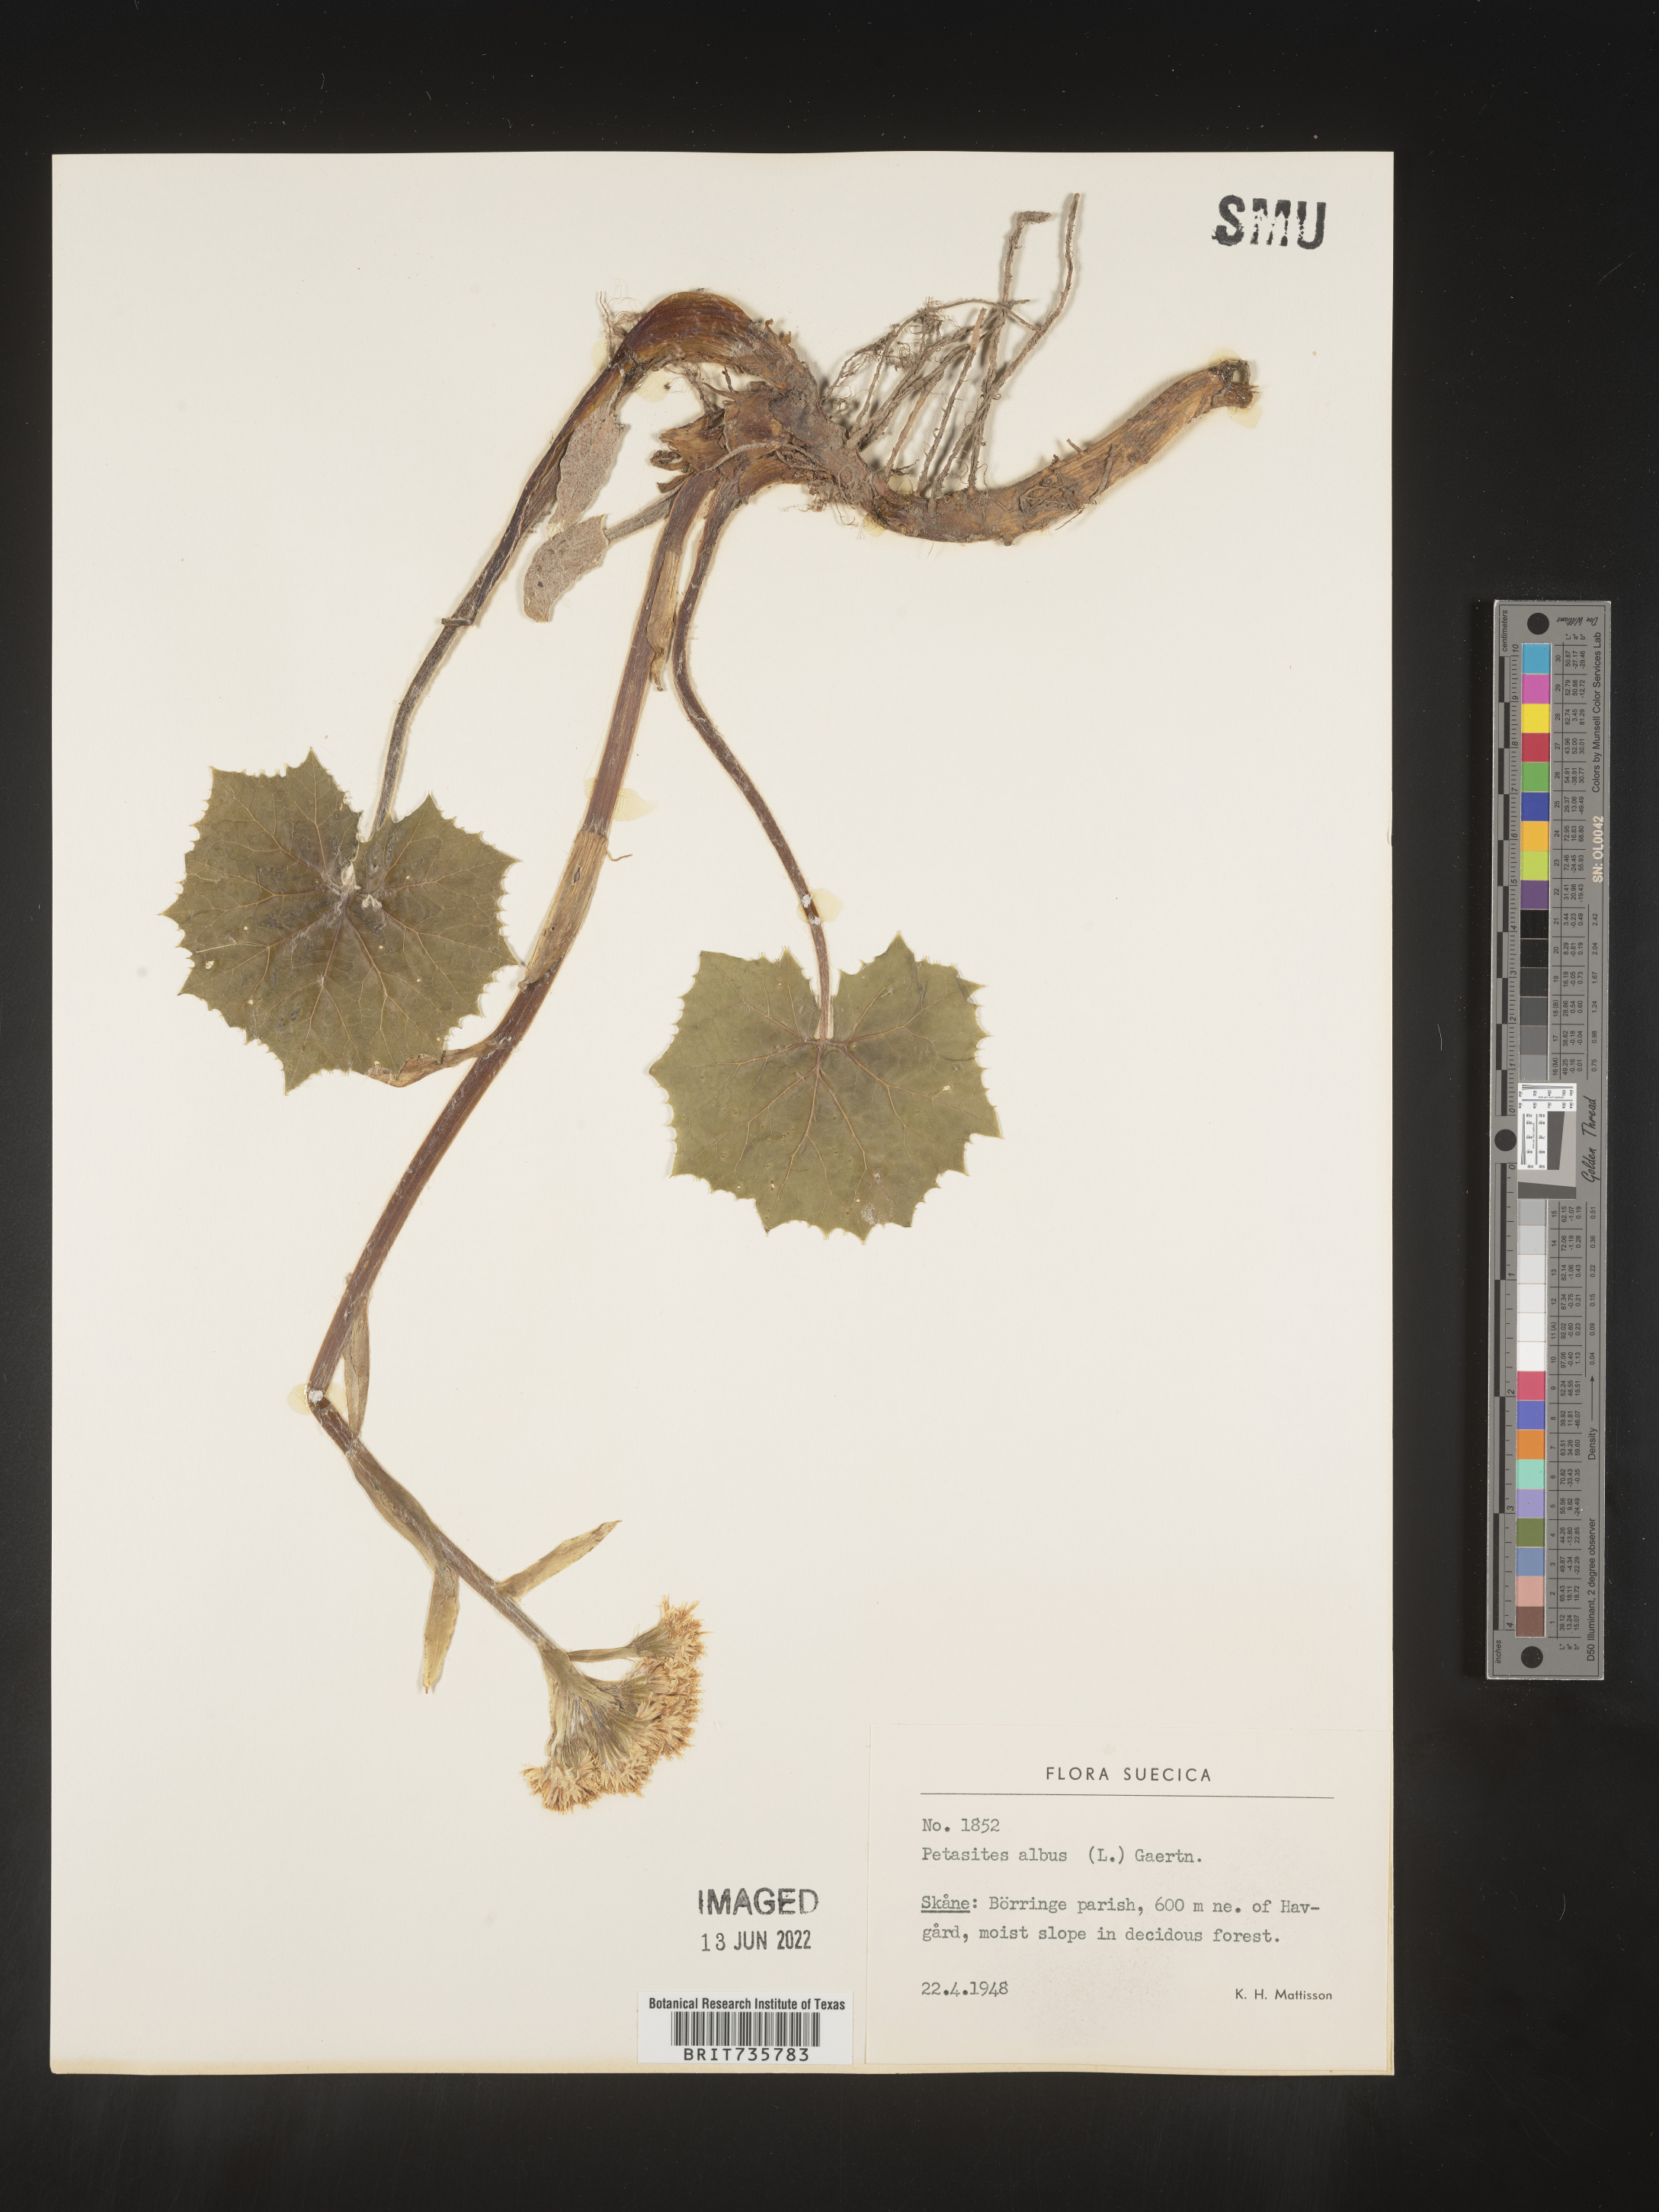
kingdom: Plantae
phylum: Tracheophyta
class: Magnoliopsida
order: Asterales
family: Asteraceae
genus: Petasites
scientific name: Petasites
